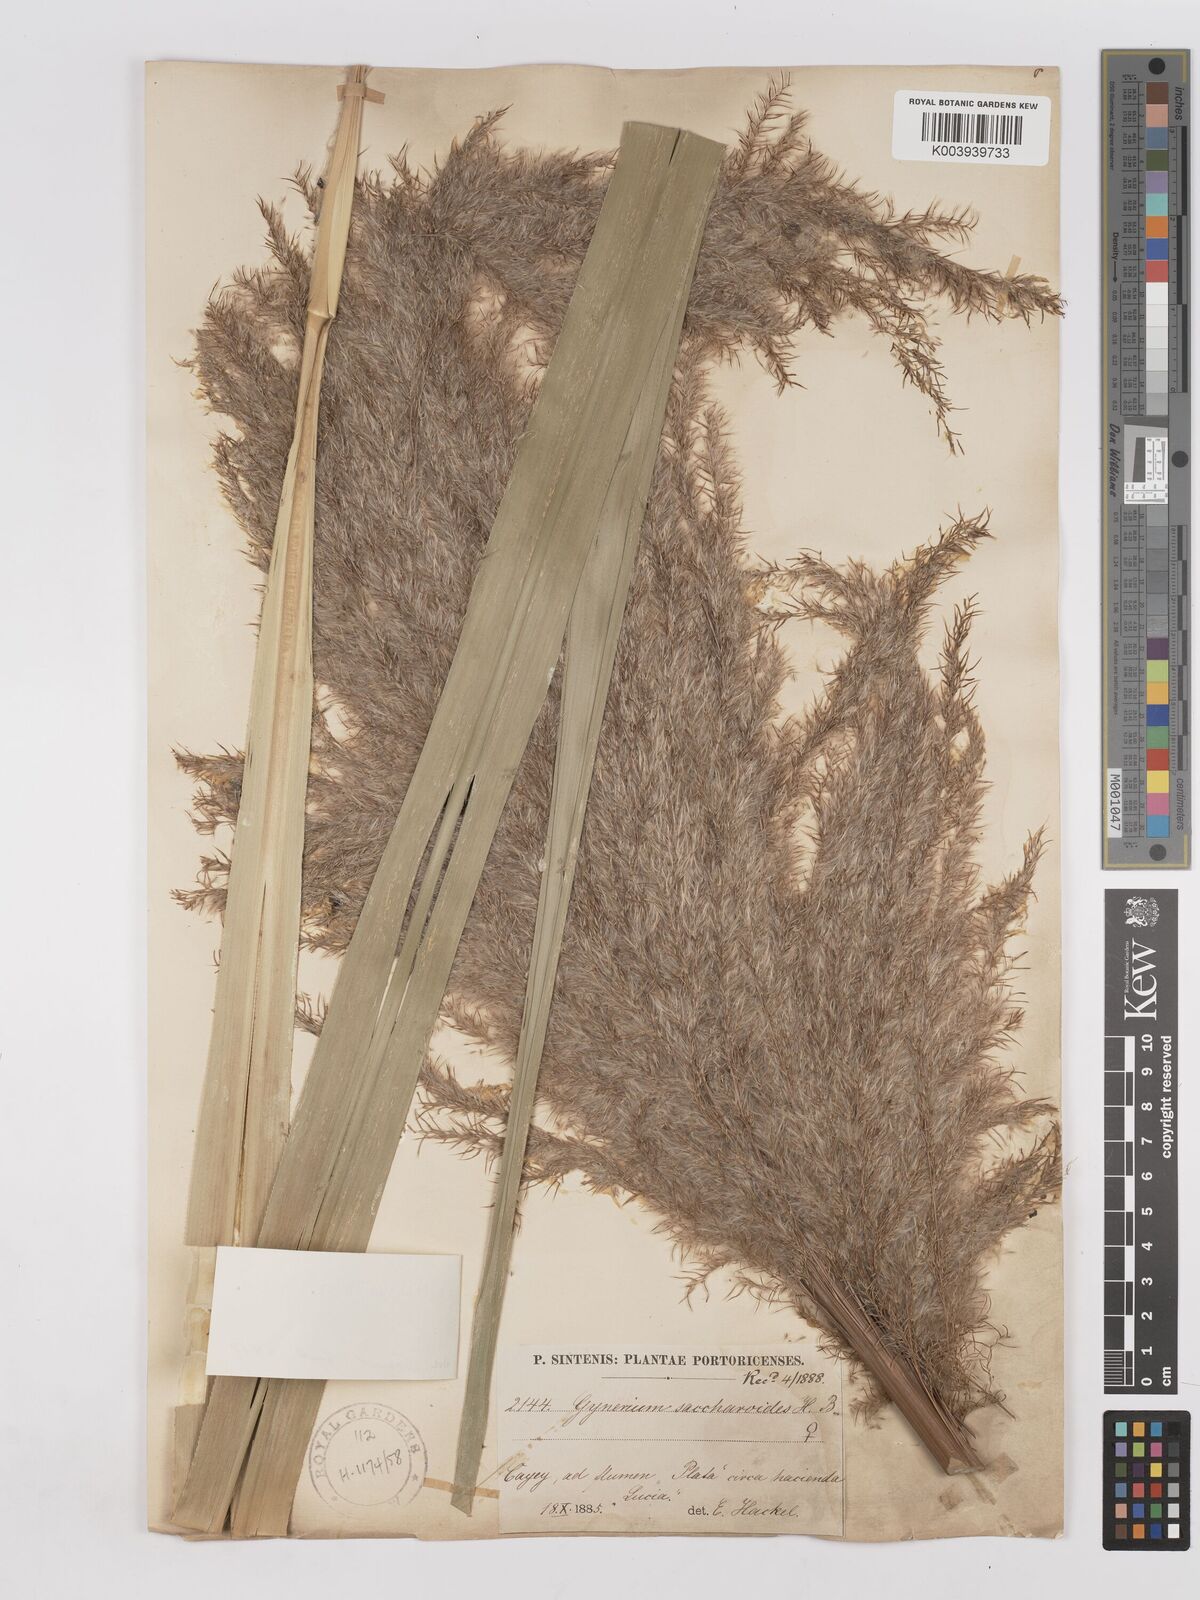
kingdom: Plantae
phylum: Tracheophyta
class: Liliopsida
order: Poales
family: Poaceae
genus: Gynerium
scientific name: Gynerium sagittatum
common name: Wild cane
